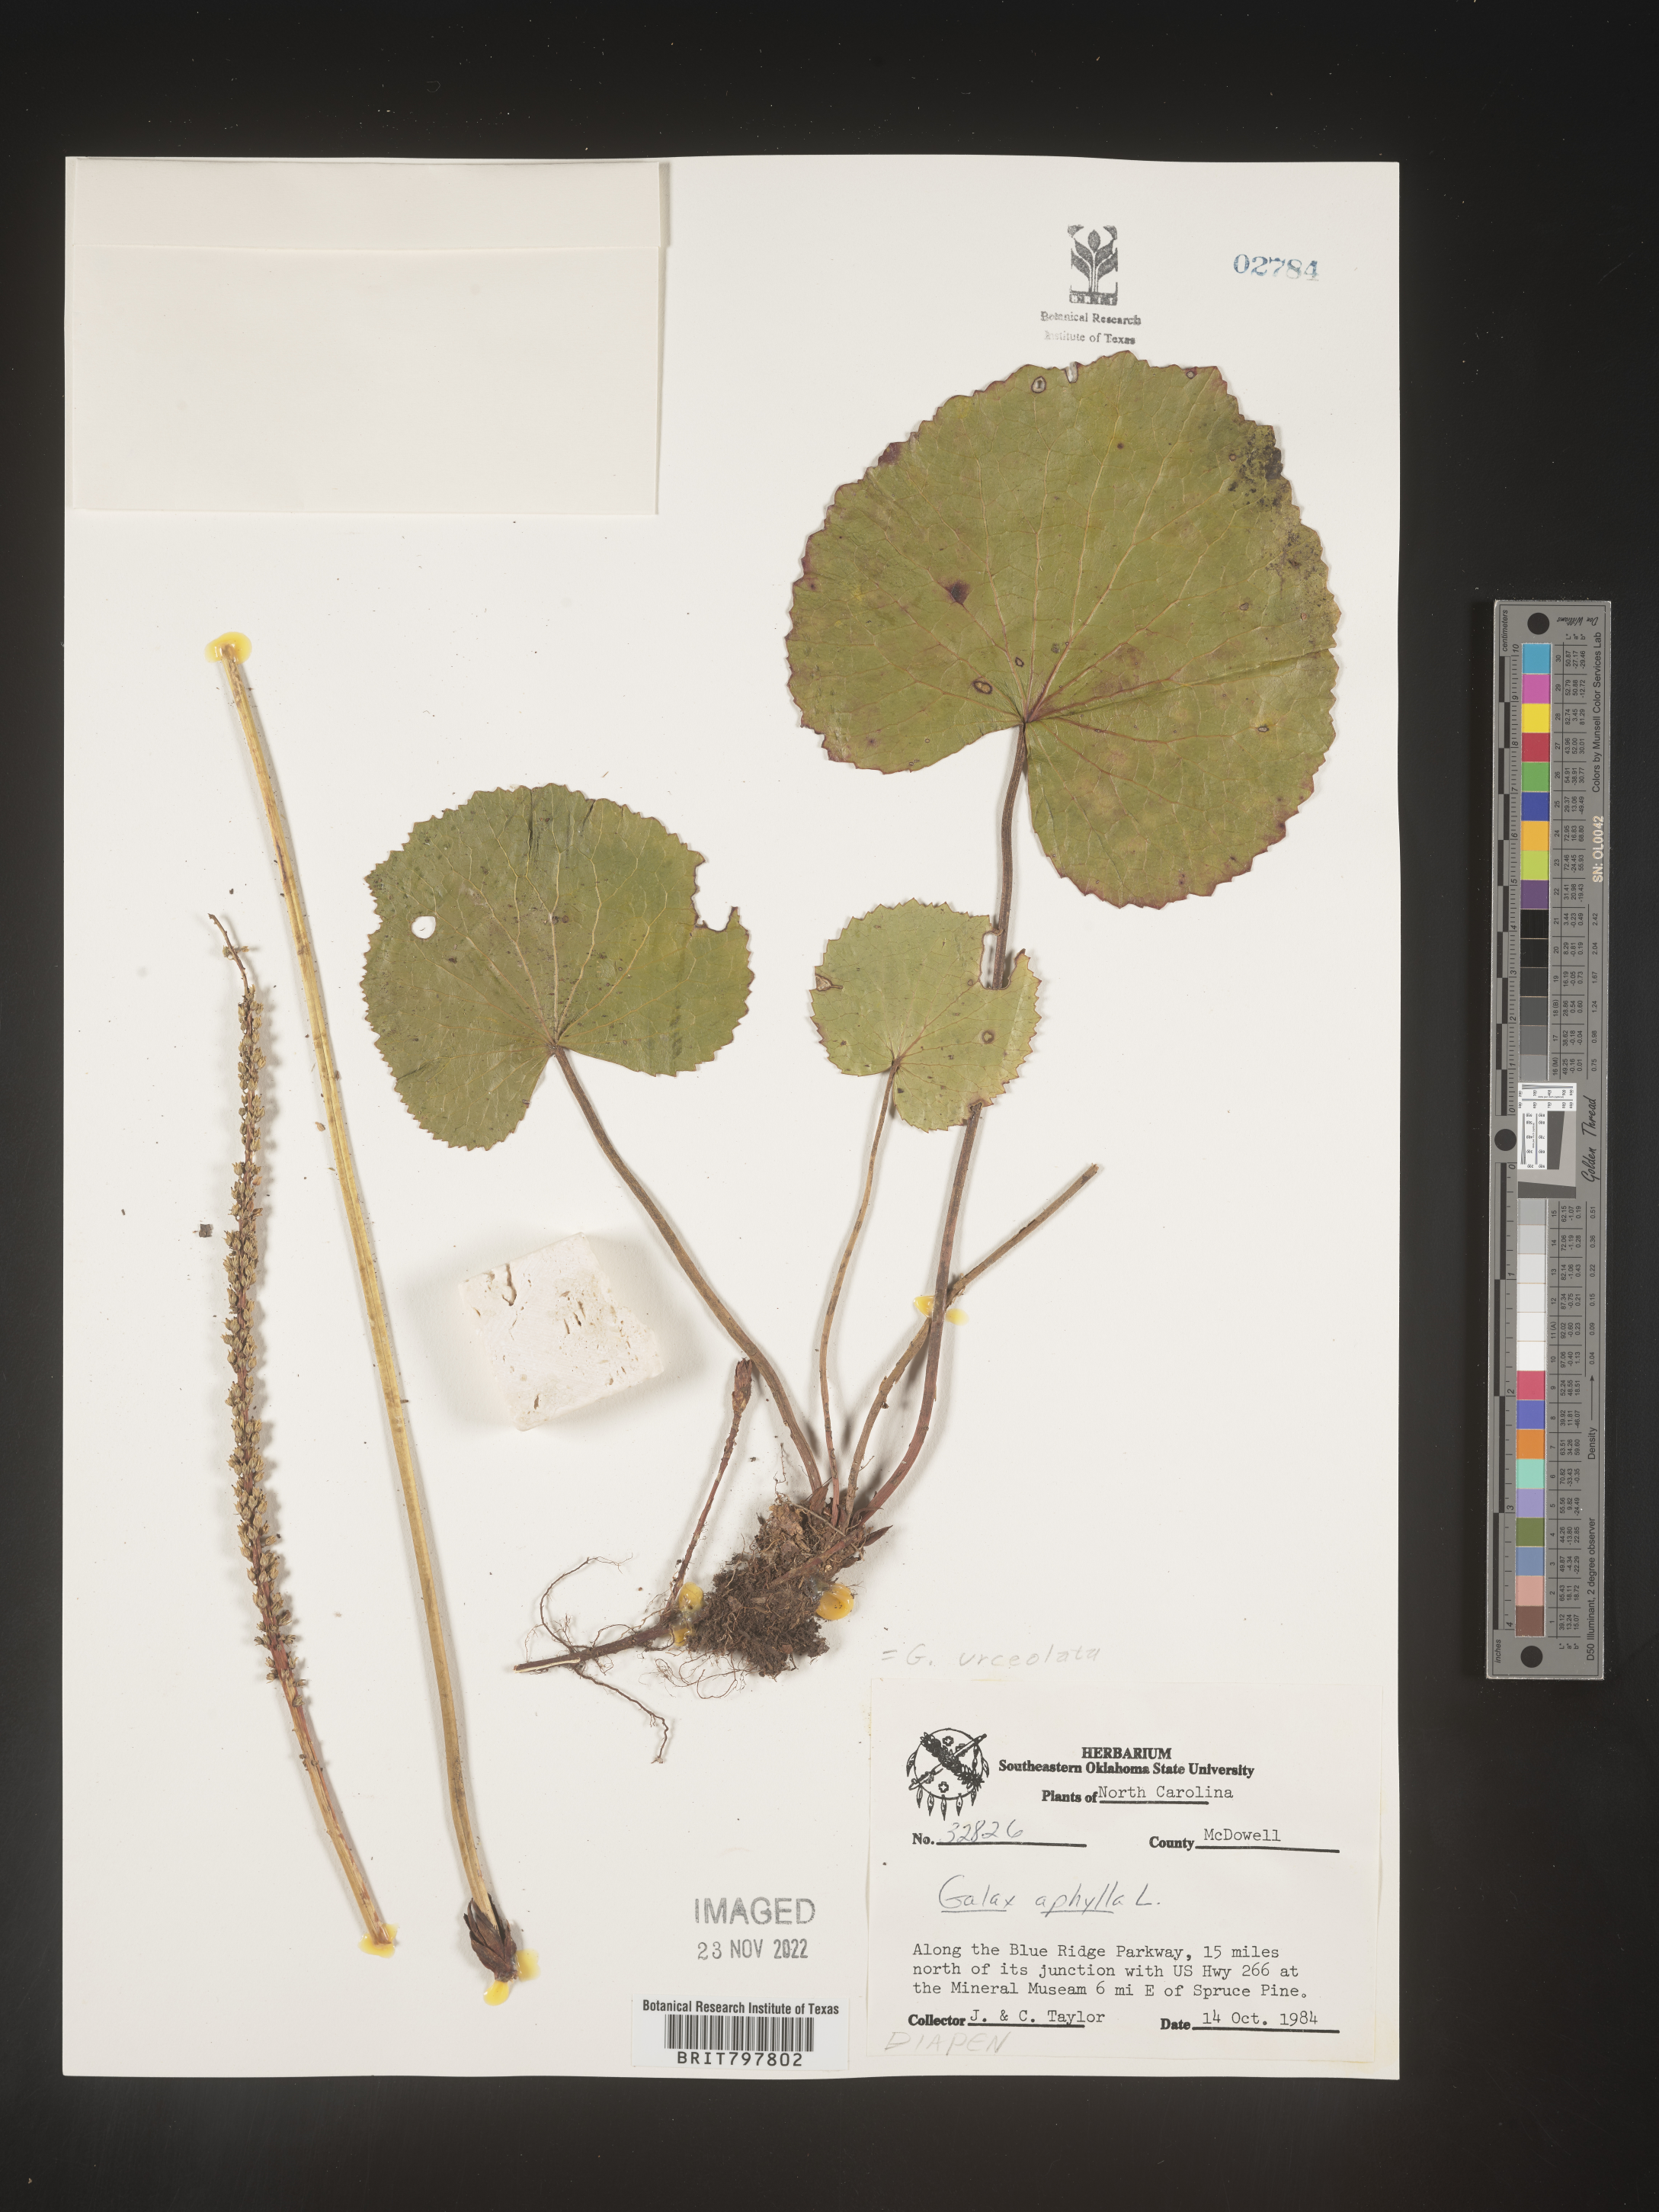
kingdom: Plantae
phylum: Tracheophyta
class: Magnoliopsida
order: Ericales
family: Diapensiaceae
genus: Galax
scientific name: Galax
